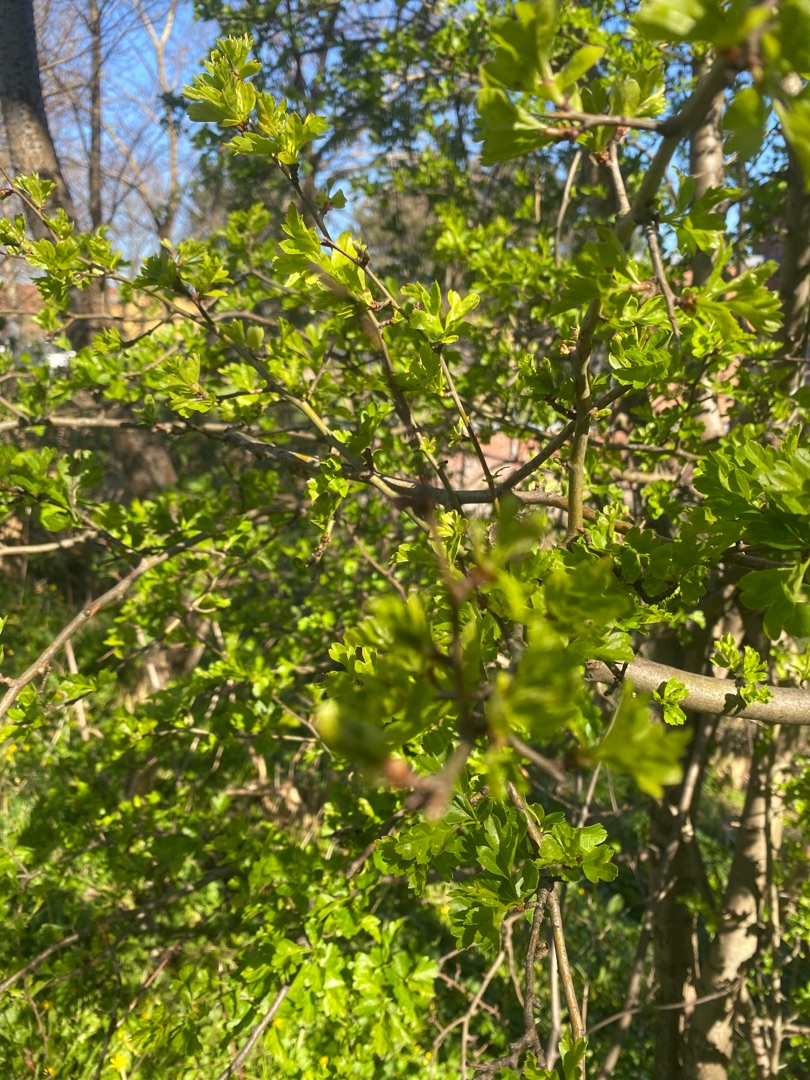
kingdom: Plantae
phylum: Tracheophyta
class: Magnoliopsida
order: Rosales
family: Rosaceae
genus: Crataegus
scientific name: Crataegus
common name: Hvidtjørnslægten
